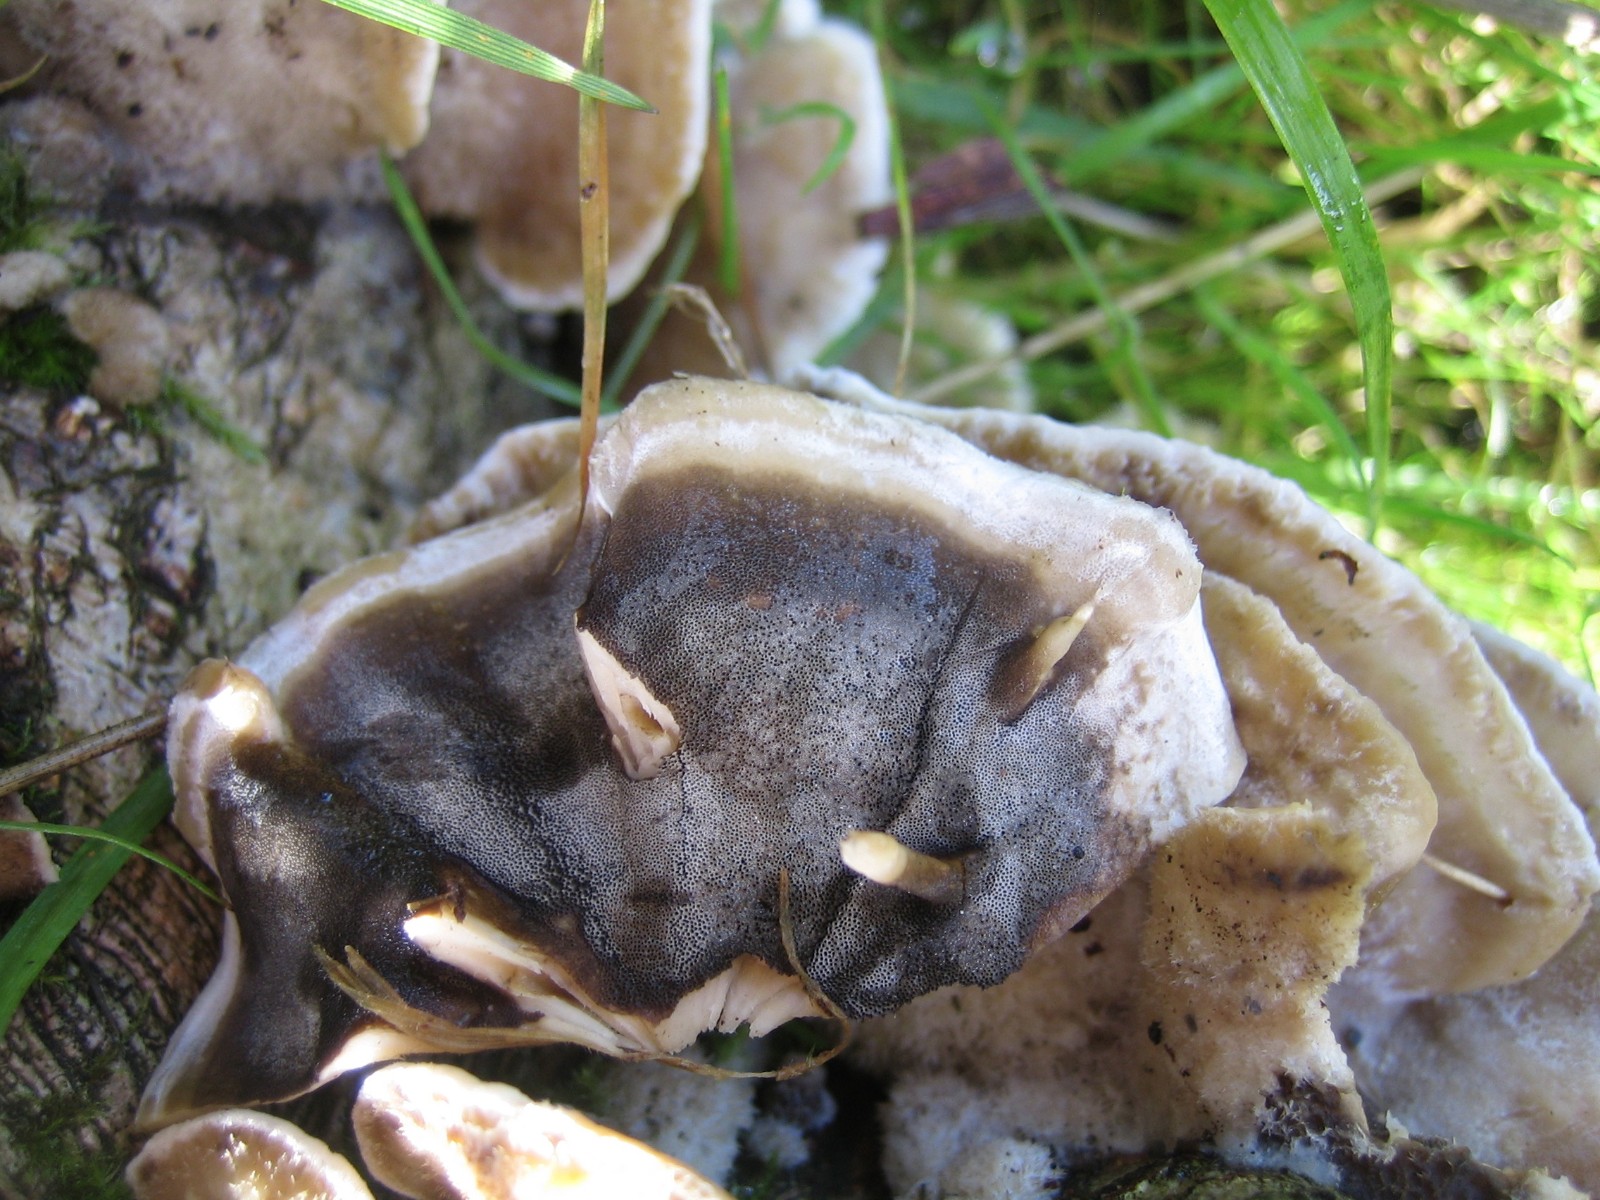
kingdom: Fungi
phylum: Basidiomycota
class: Agaricomycetes
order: Polyporales
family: Phanerochaetaceae
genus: Bjerkandera
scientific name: Bjerkandera adusta
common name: sveden sodporesvamp
